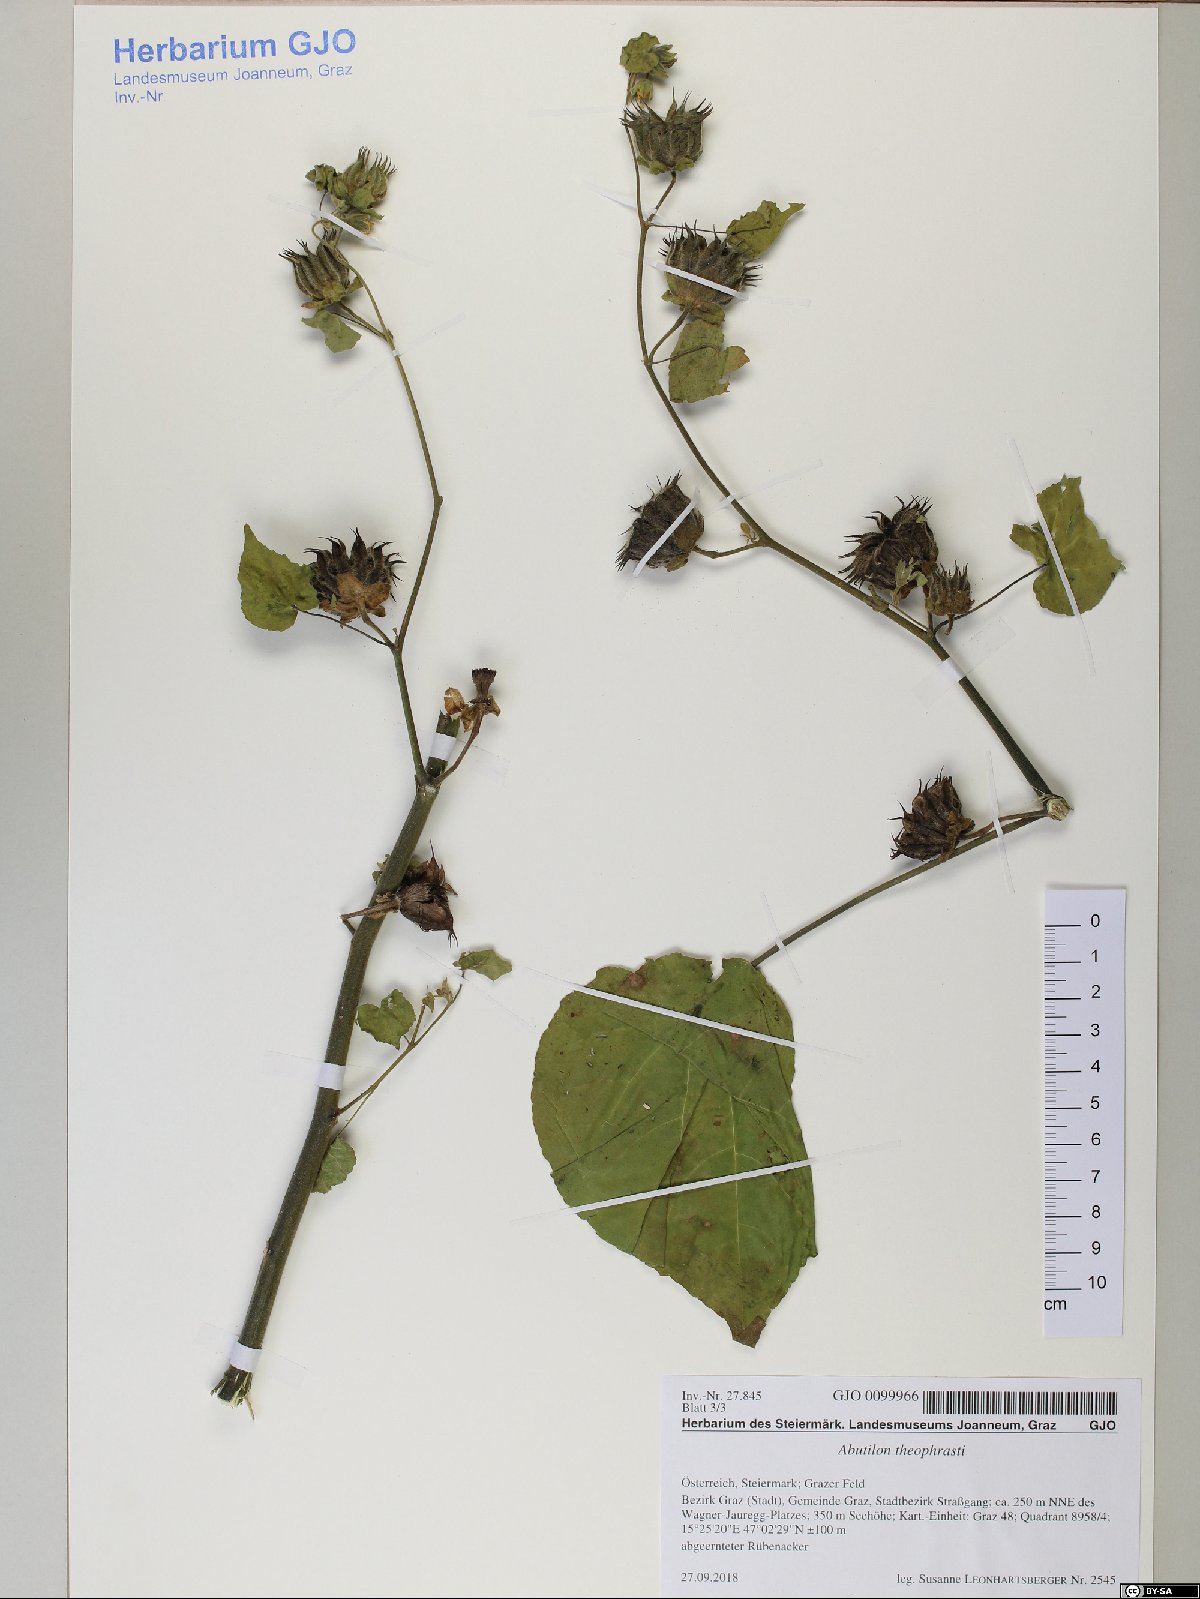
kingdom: Plantae
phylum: Tracheophyta
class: Liliopsida
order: Poales
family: Poaceae
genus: Agropyron
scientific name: Agropyron cristatum
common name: Crested wheatgrass
